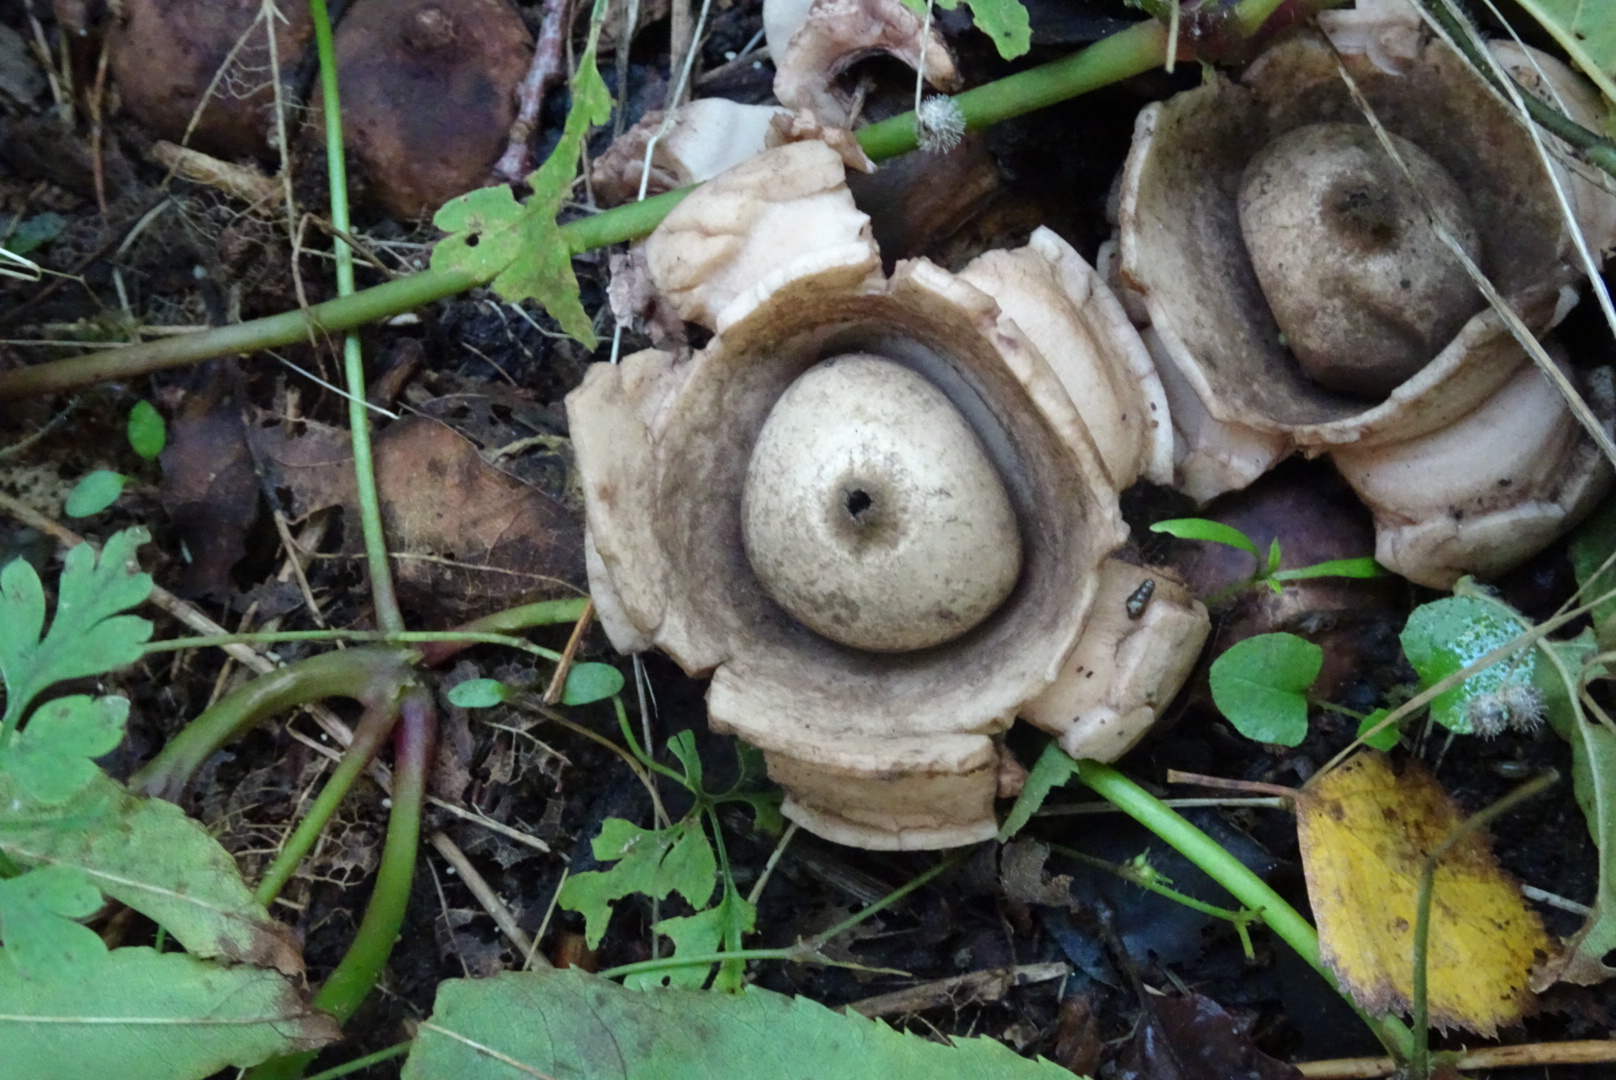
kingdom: Fungi
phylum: Basidiomycota
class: Agaricomycetes
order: Geastrales
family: Geastraceae
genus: Geastrum
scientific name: Geastrum michelianum
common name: kødet stjernebold
